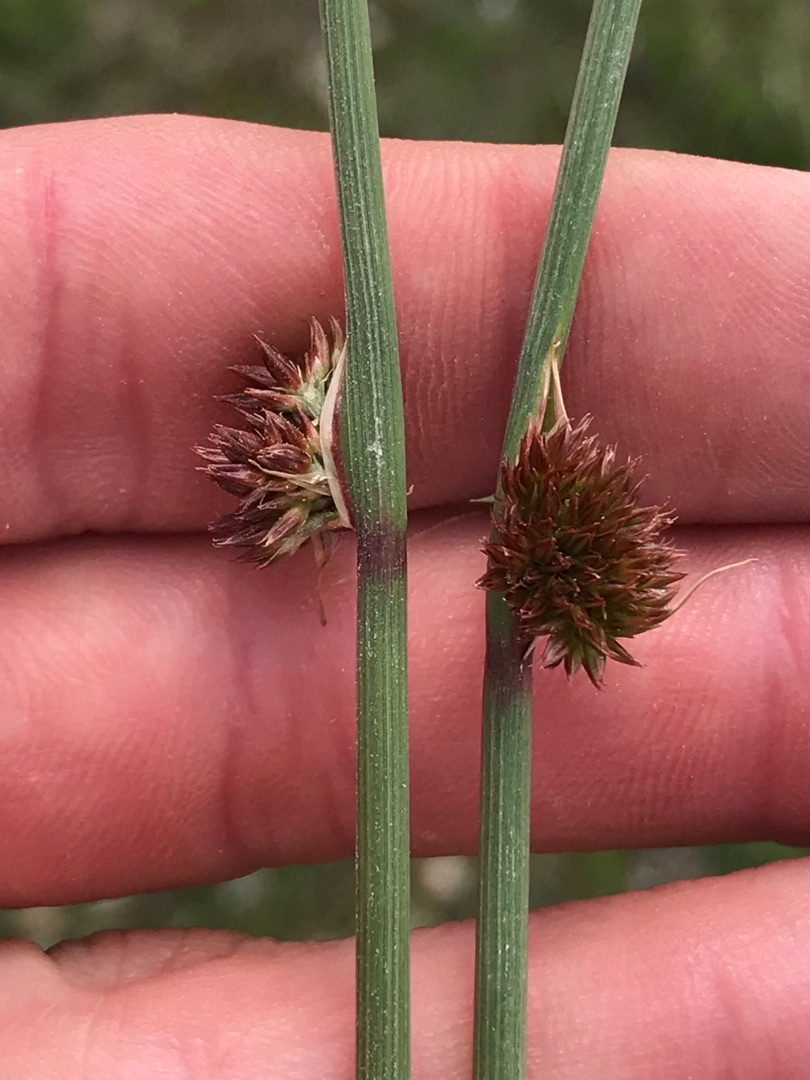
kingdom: Plantae
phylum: Tracheophyta
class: Liliopsida
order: Poales
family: Juncaceae
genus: Juncus
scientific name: Juncus conglomeratus
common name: Knop-siv
